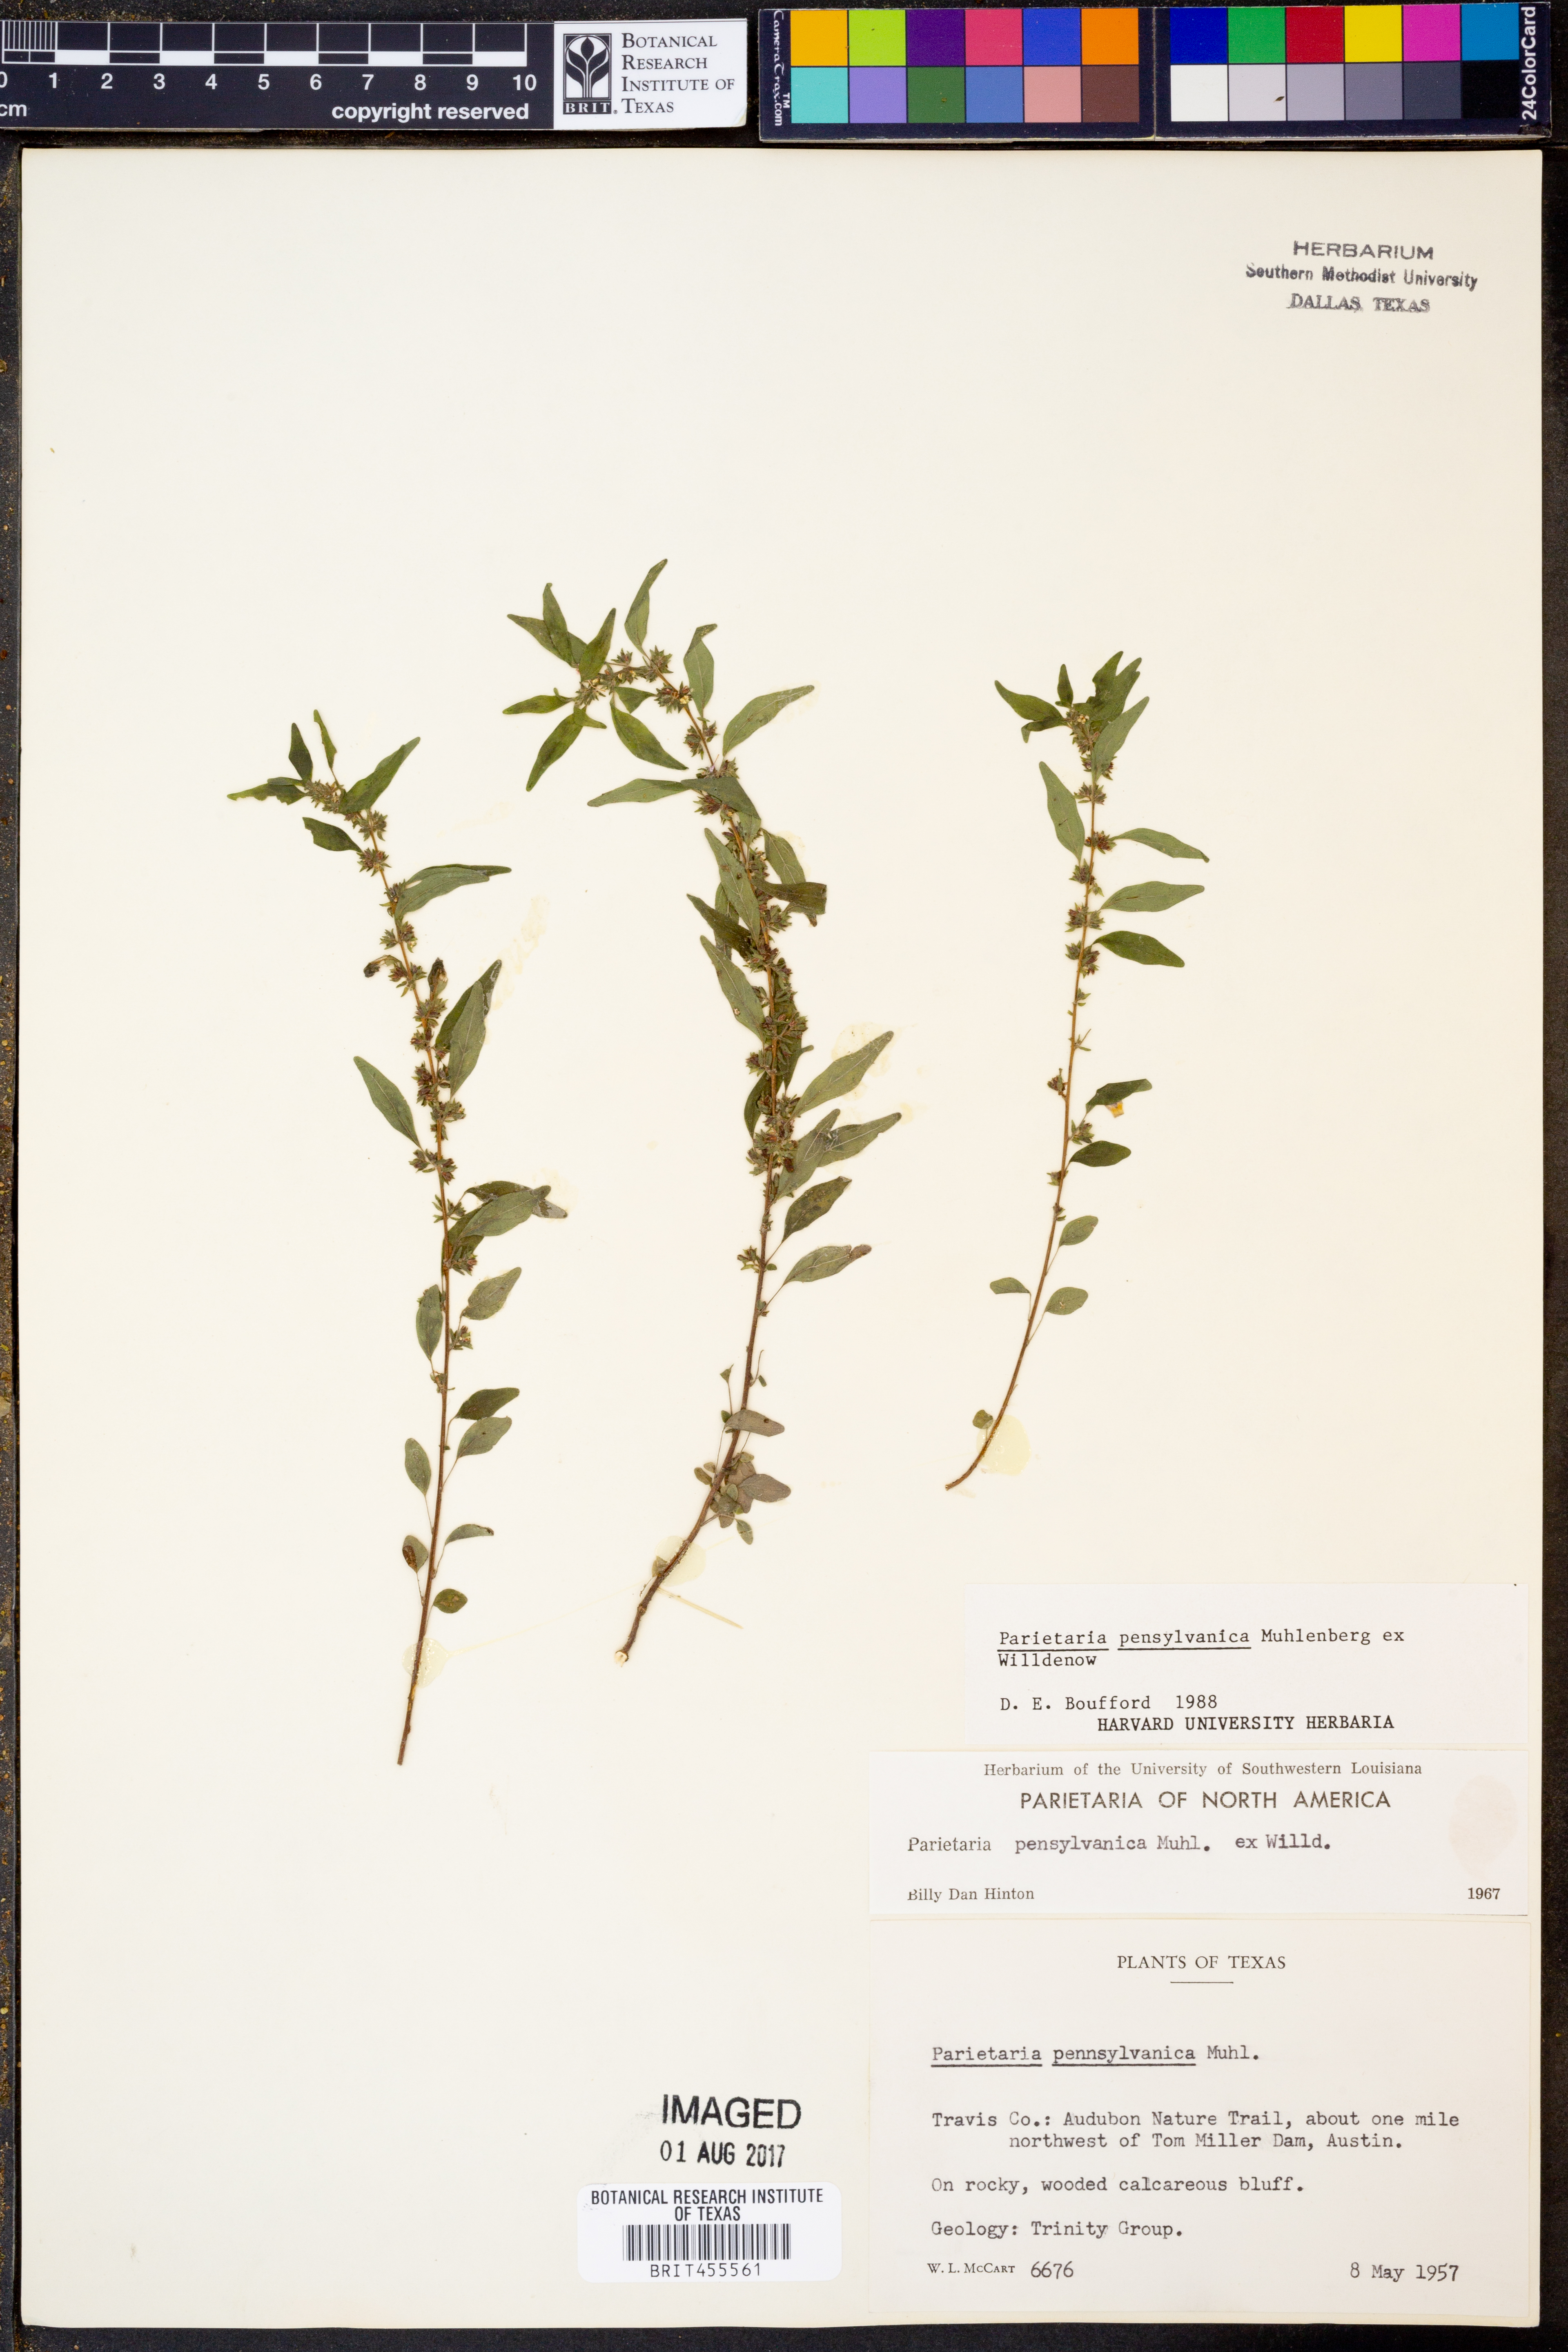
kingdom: Plantae
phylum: Tracheophyta
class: Magnoliopsida
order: Rosales
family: Urticaceae
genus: Parietaria
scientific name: Parietaria pensylvanica
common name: Pennsylvania pellitory
